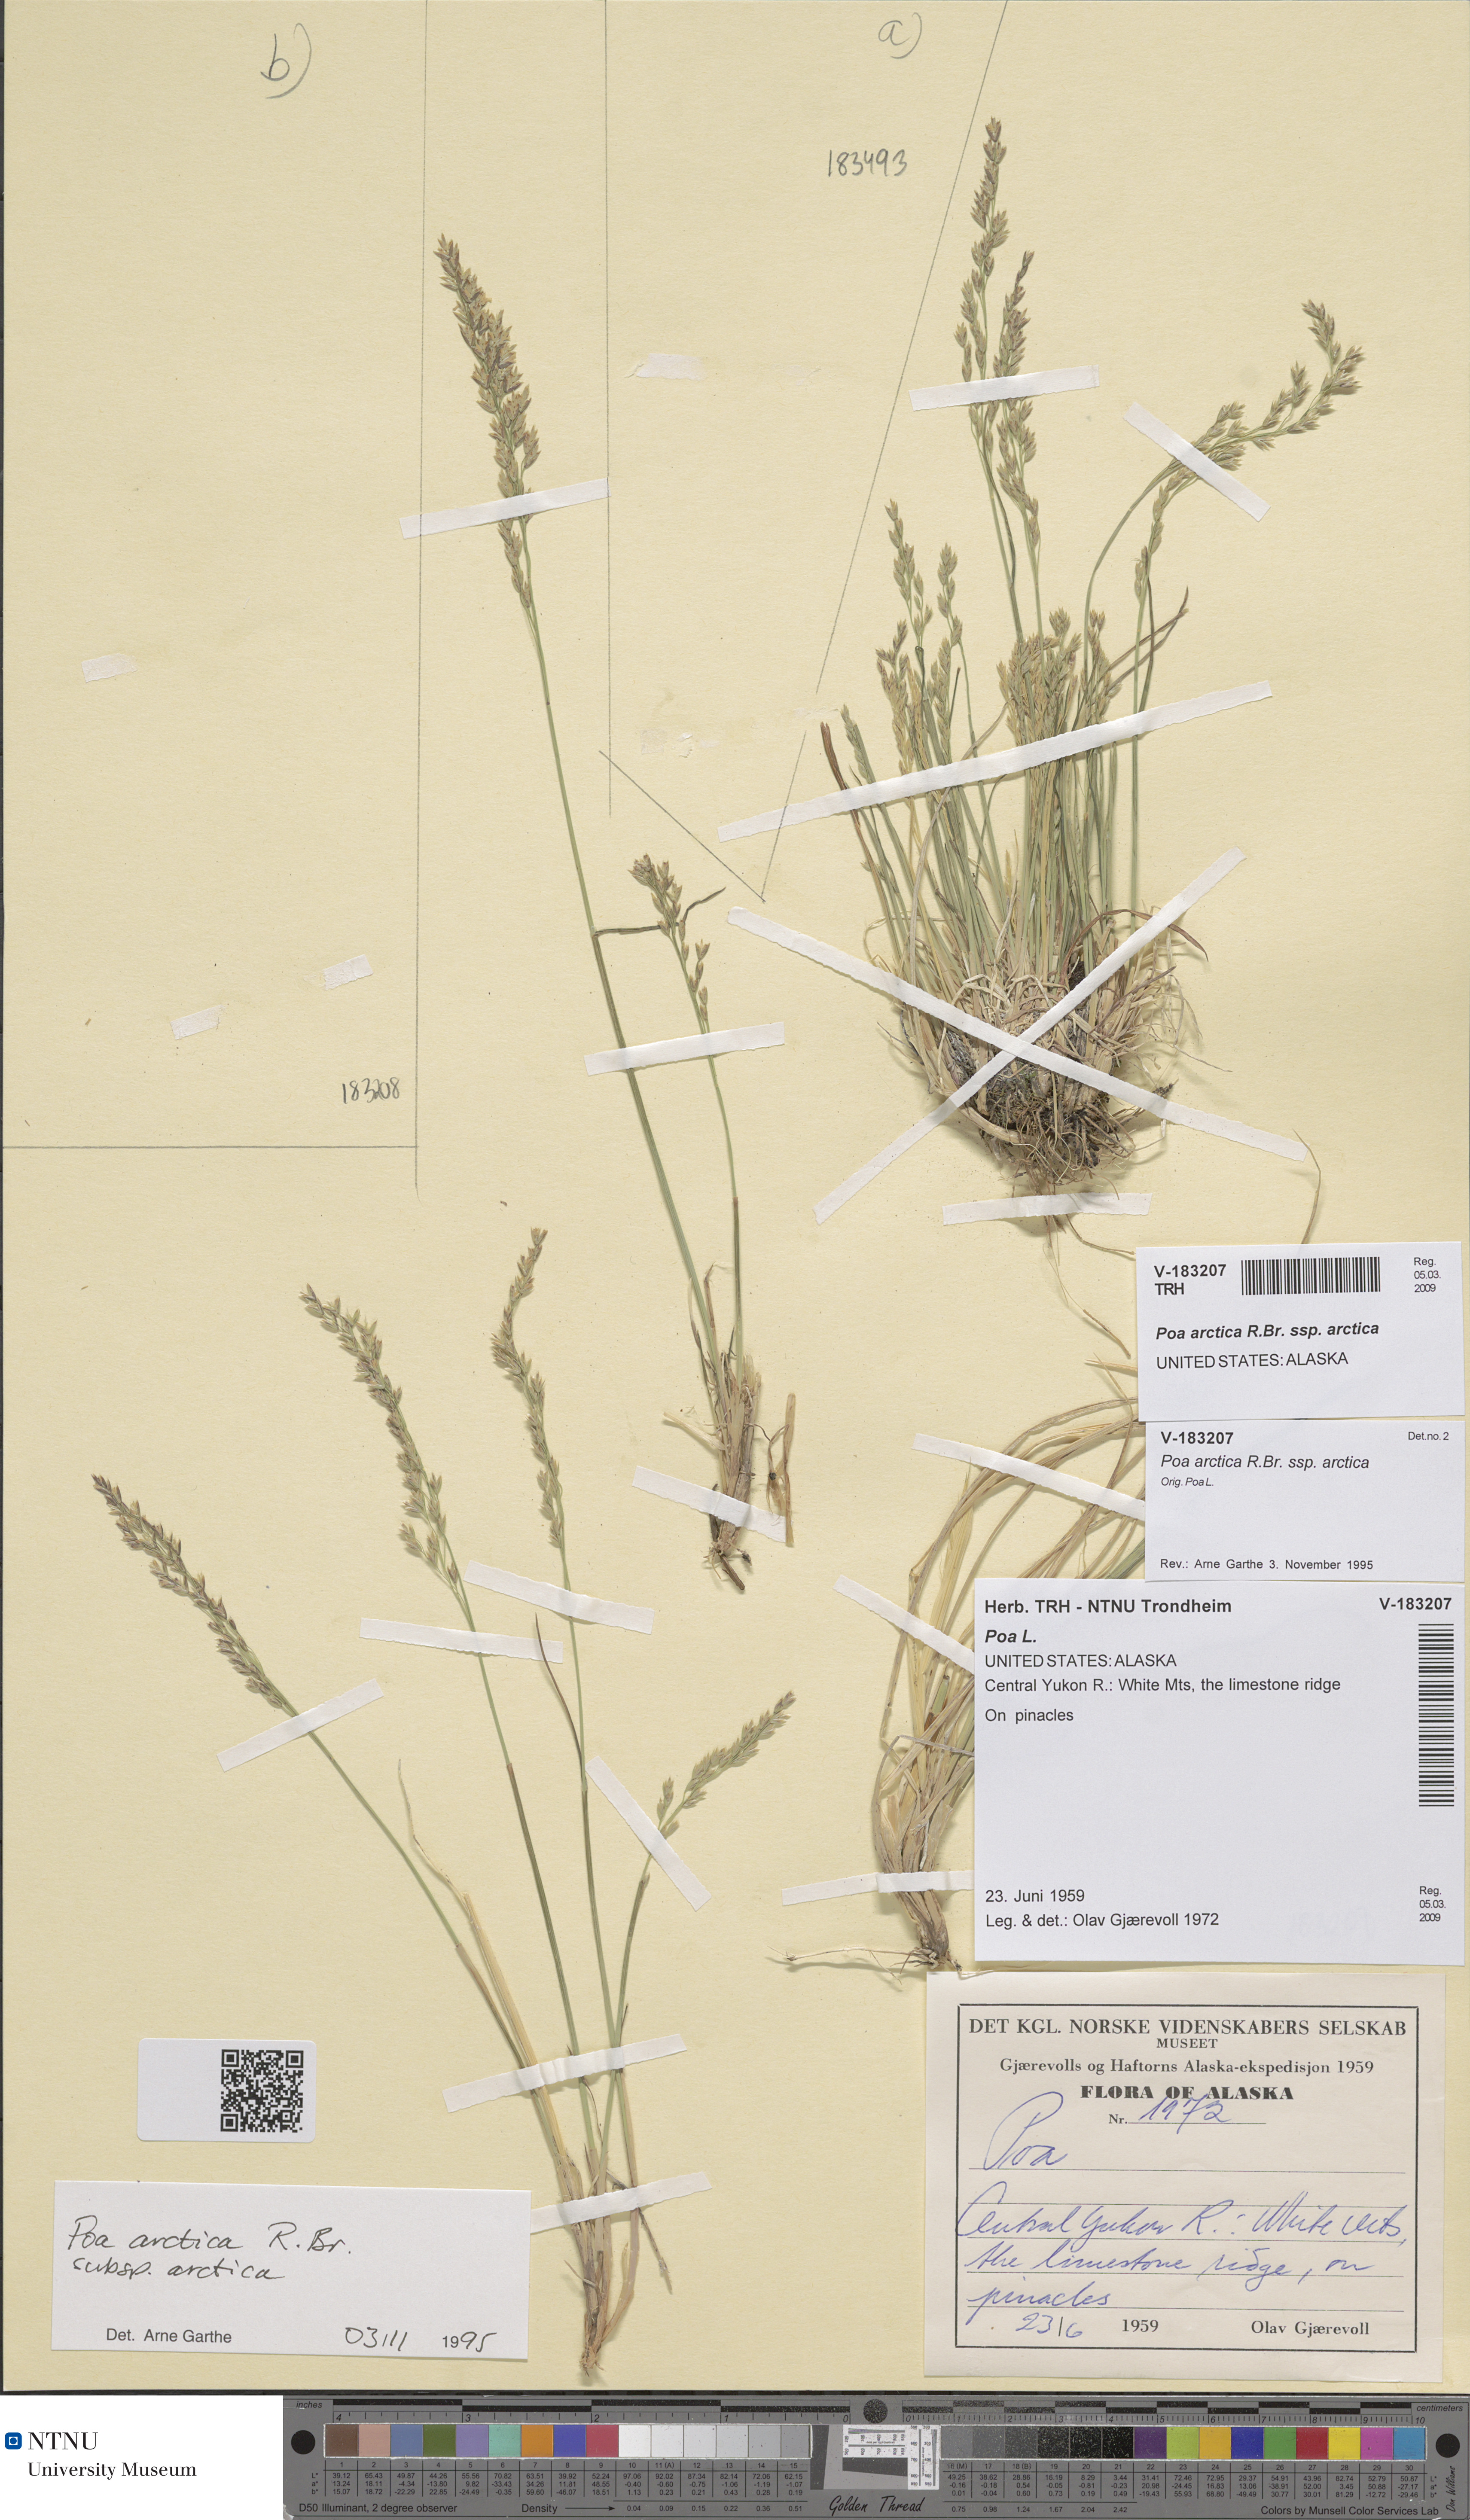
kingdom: Plantae
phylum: Tracheophyta
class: Liliopsida
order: Poales
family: Poaceae
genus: Poa
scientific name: Poa arctica
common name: Arctic bluegrass
